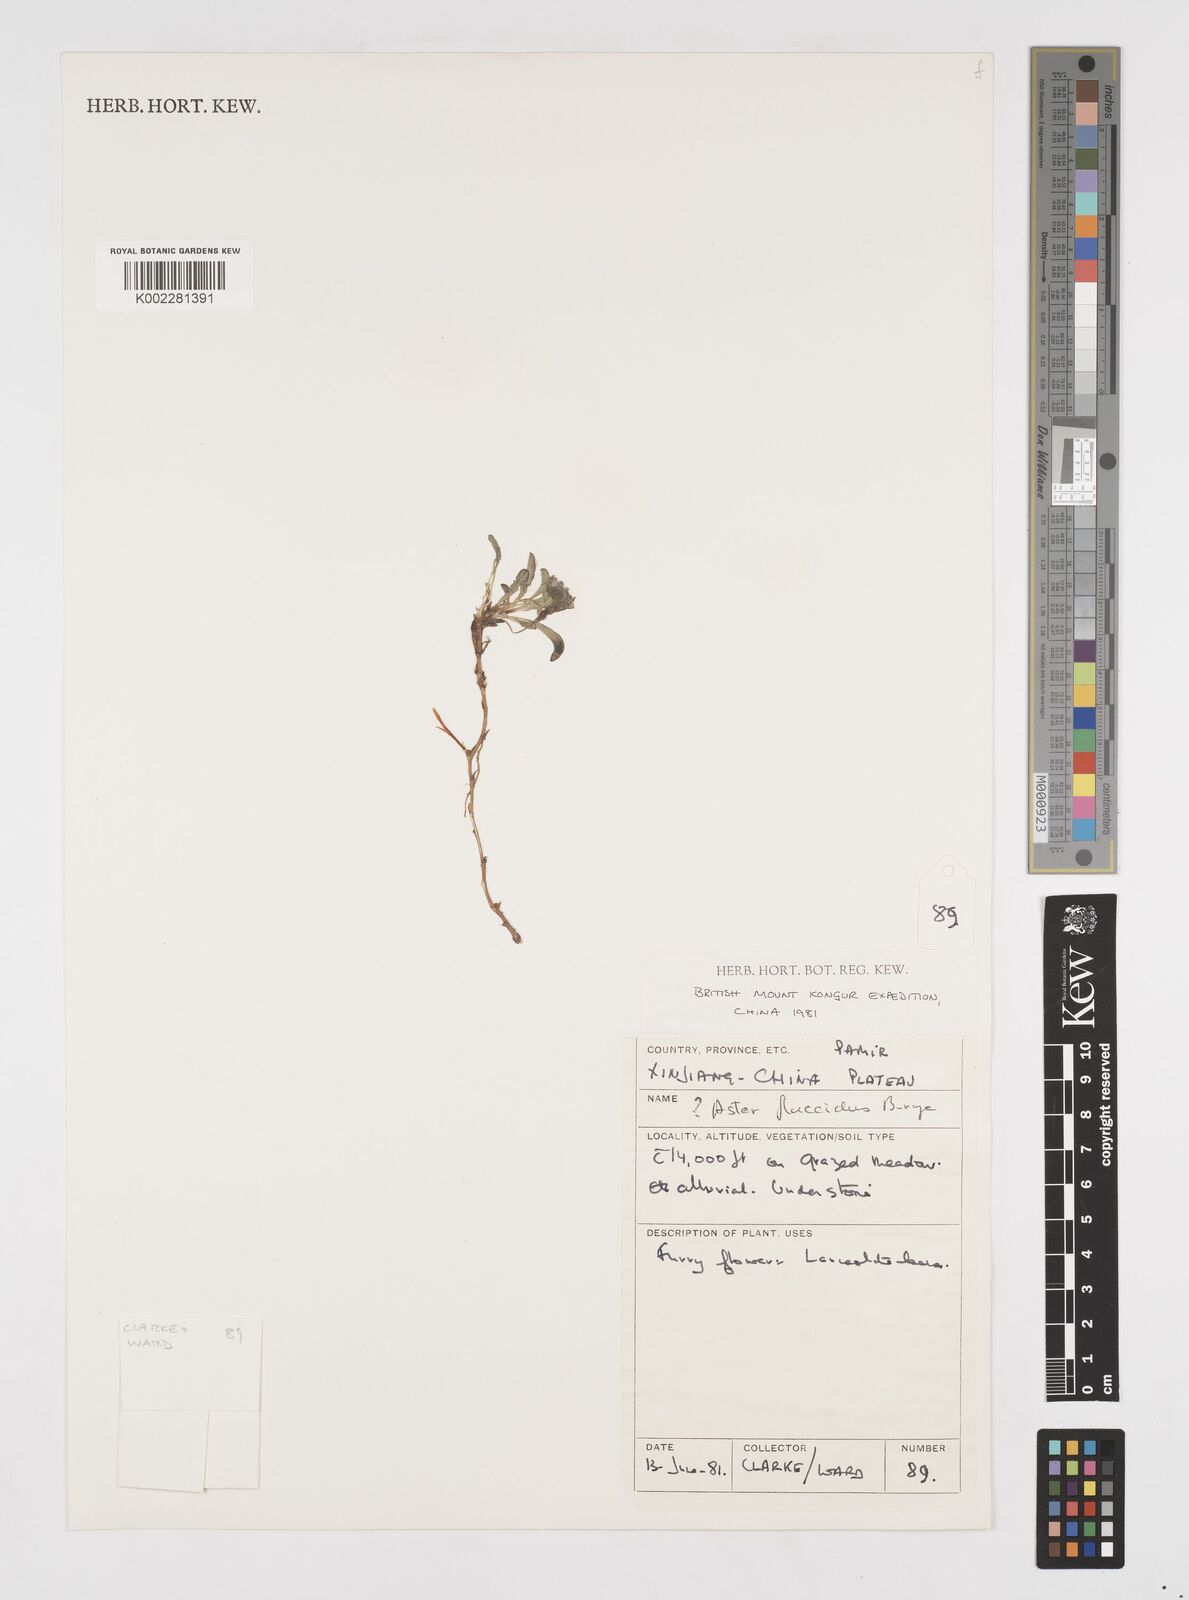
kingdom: Plantae
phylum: Tracheophyta
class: Magnoliopsida
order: Asterales
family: Asteraceae
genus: Tibetiodes
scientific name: Tibetiodes flaccida
